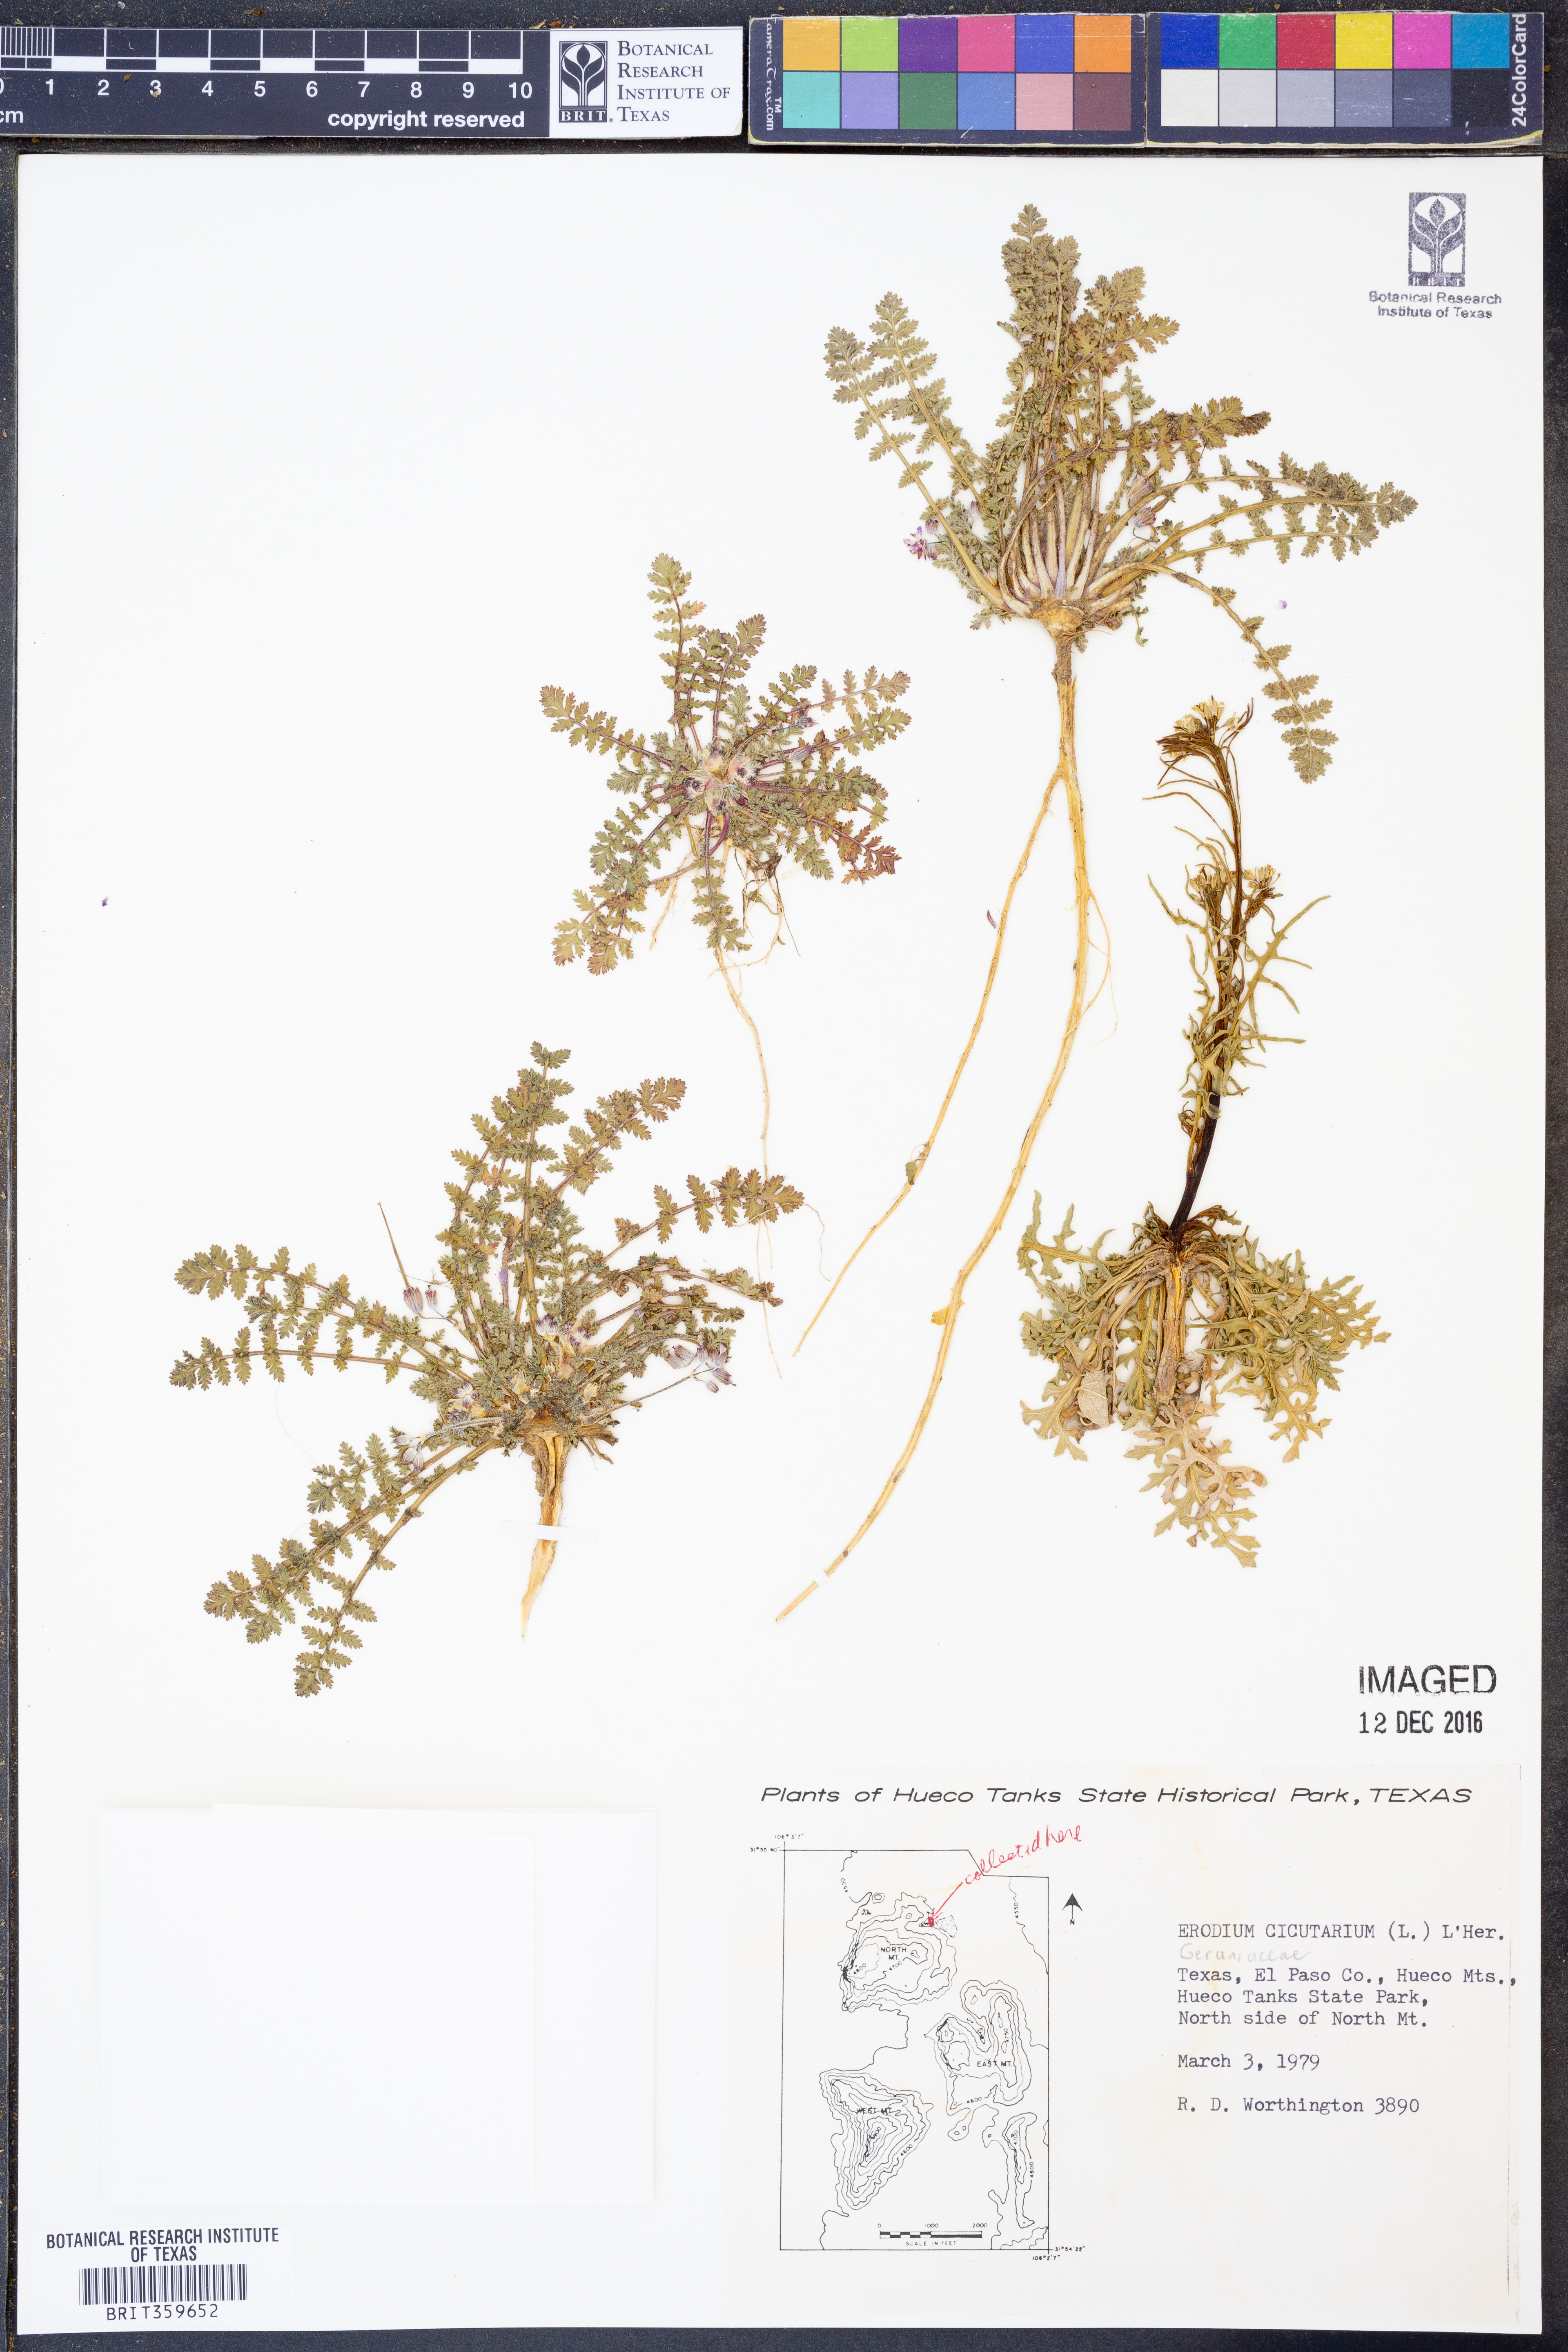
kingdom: Plantae
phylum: Tracheophyta
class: Magnoliopsida
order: Geraniales
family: Geraniaceae
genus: Erodium
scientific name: Erodium cicutarium
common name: Common stork's-bill
